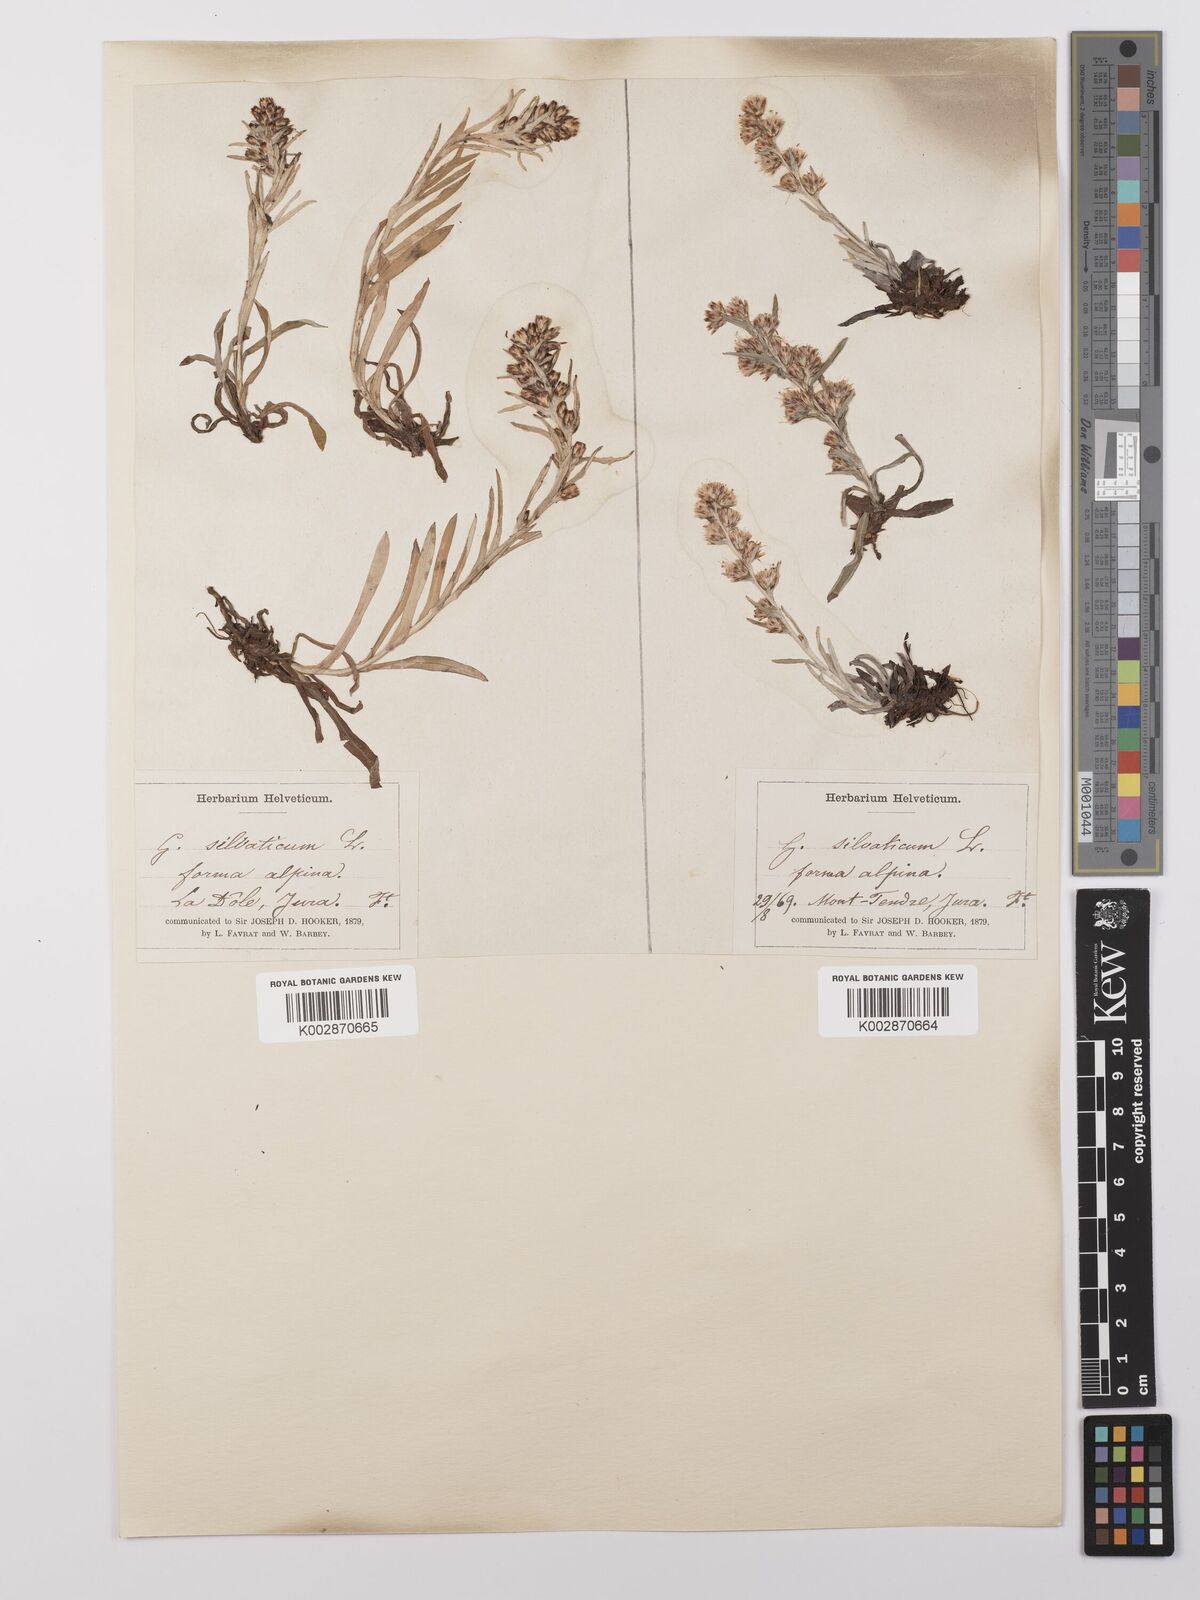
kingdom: Plantae
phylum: Tracheophyta
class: Magnoliopsida
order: Asterales
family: Asteraceae
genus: Omalotheca
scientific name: Omalotheca sylvatica
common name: Heath cudweed
